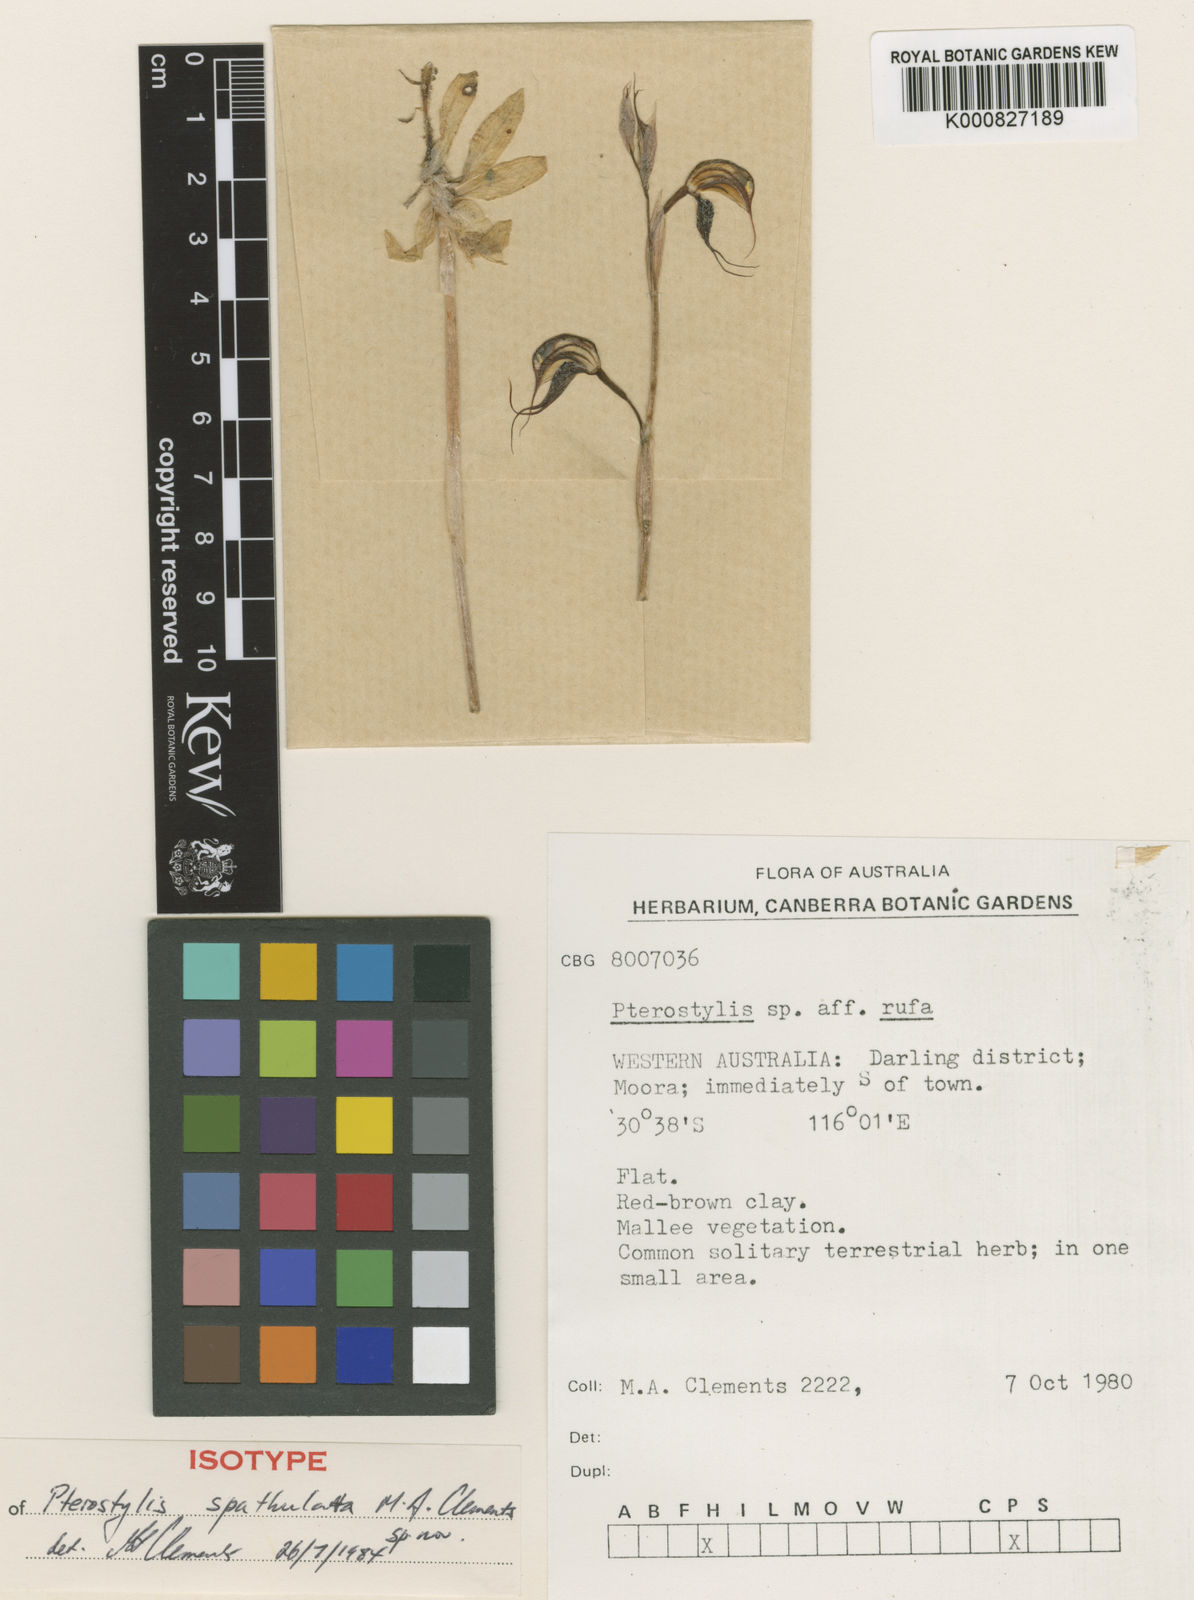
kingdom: Plantae
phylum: Tracheophyta
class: Liliopsida
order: Asparagales
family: Orchidaceae
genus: Pterostylis
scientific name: Pterostylis spathulata
